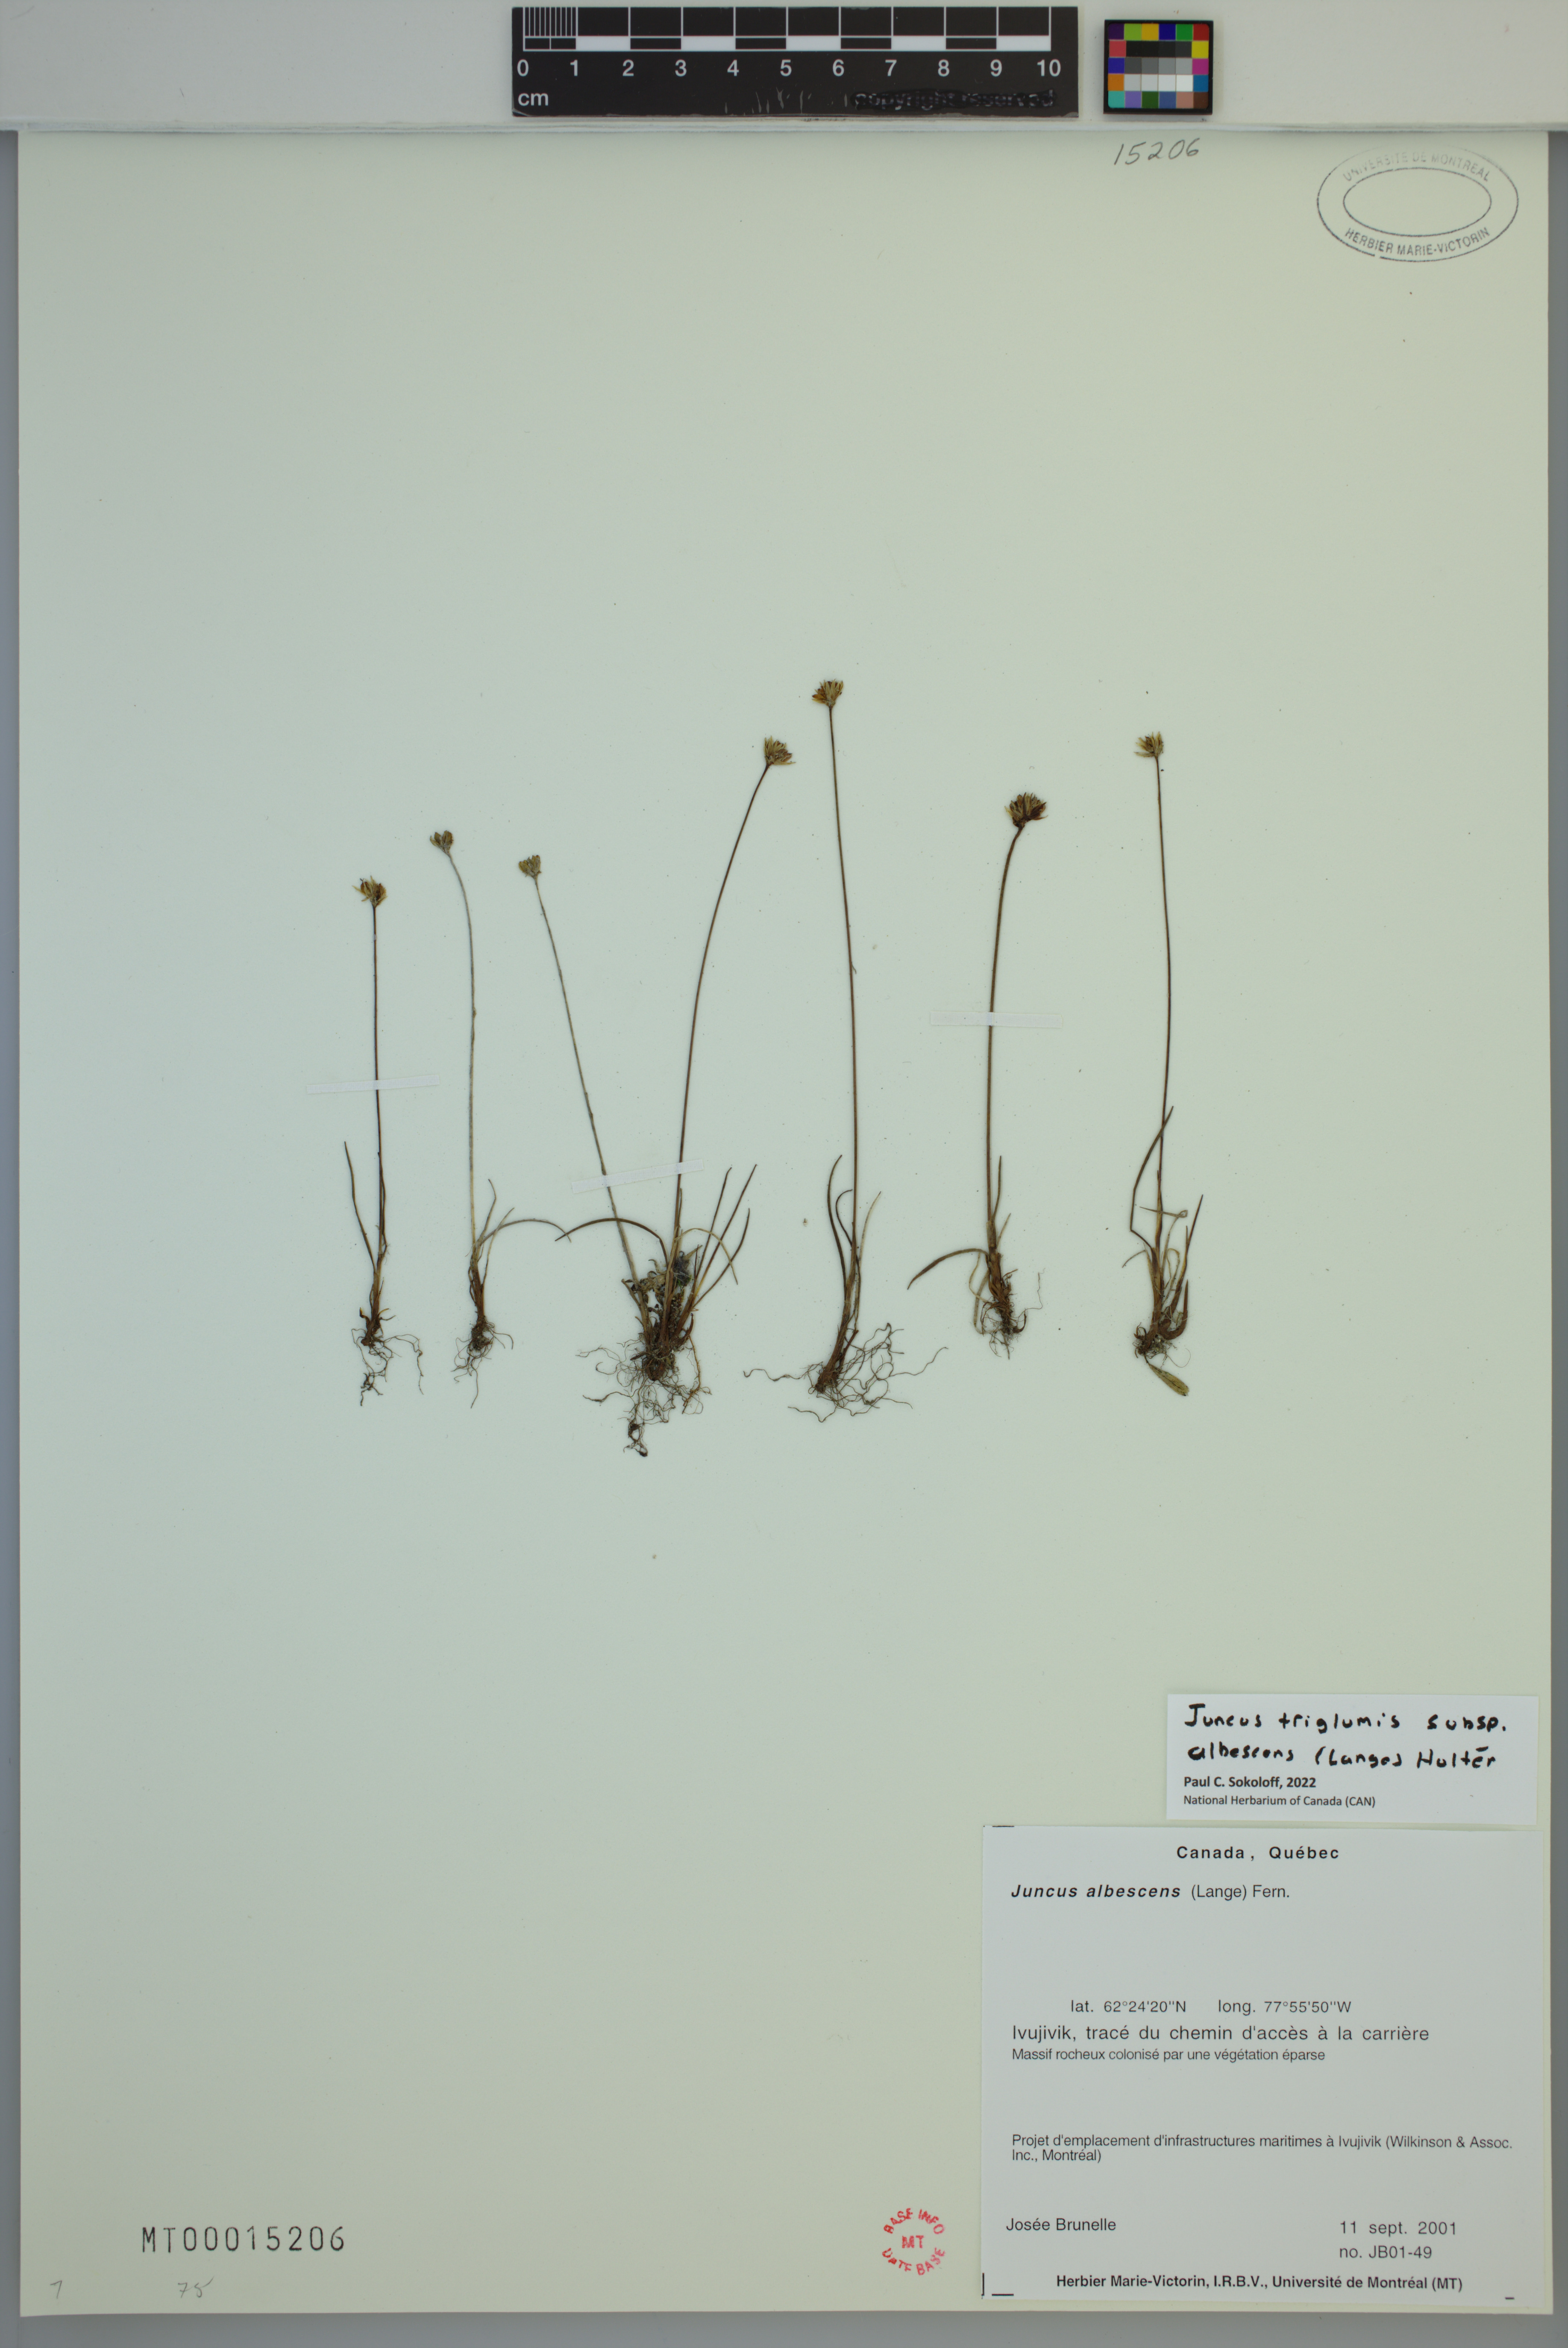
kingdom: Plantae
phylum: Tracheophyta
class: Liliopsida
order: Poales
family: Juncaceae
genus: Juncus
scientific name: Juncus albescens
